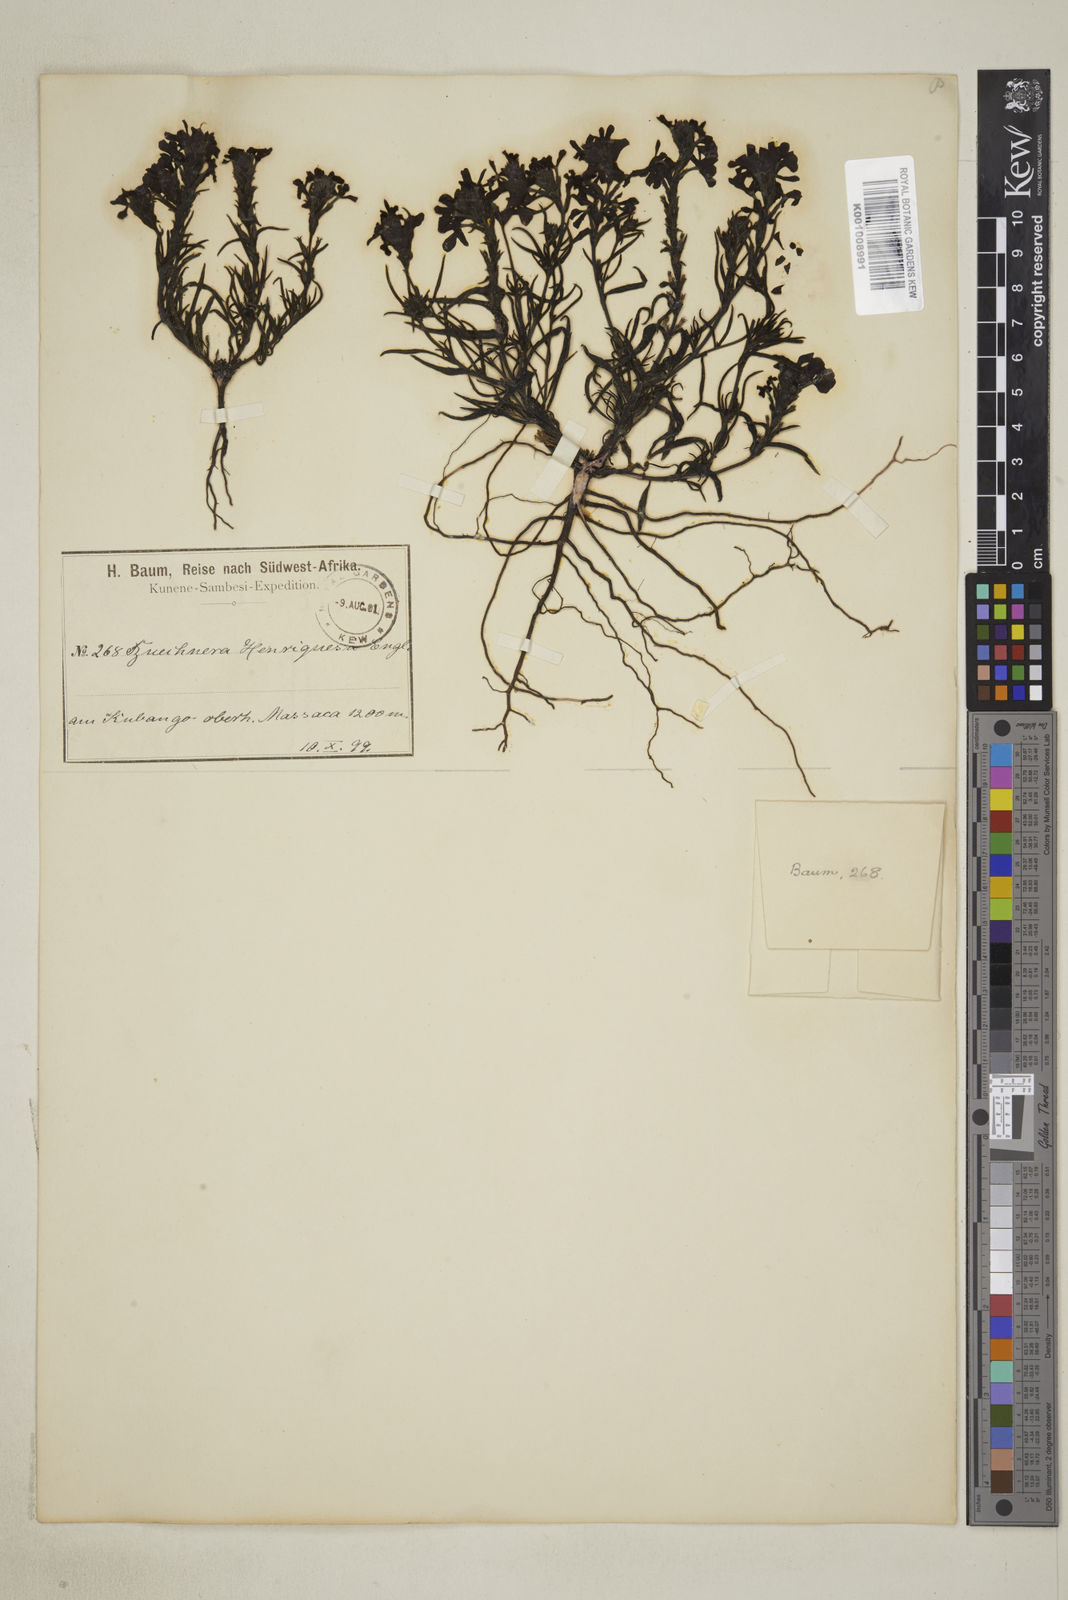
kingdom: Plantae
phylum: Tracheophyta
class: Magnoliopsida
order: Lamiales
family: Orobanchaceae
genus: Buchnera
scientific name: Buchnera henriquesii
